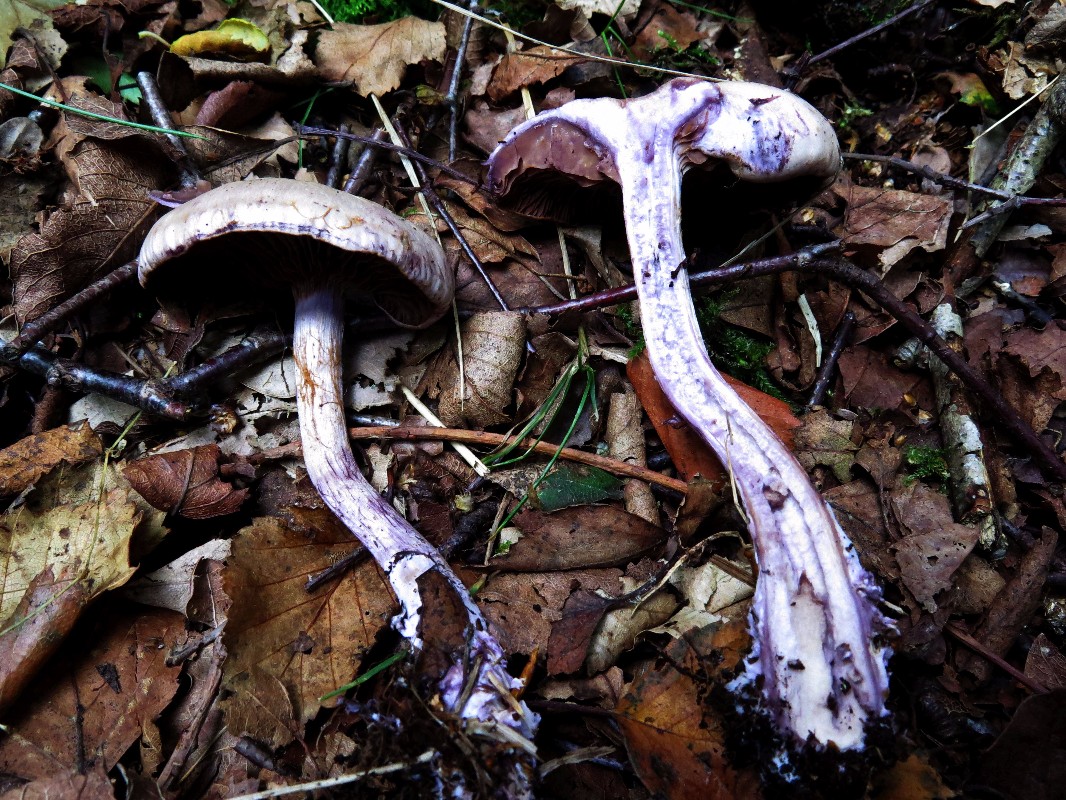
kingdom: Fungi
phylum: Basidiomycota
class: Agaricomycetes
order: Agaricales
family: Cortinariaceae
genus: Thaxterogaster
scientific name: Thaxterogaster subporphyropus
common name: ametyst-slørhat
